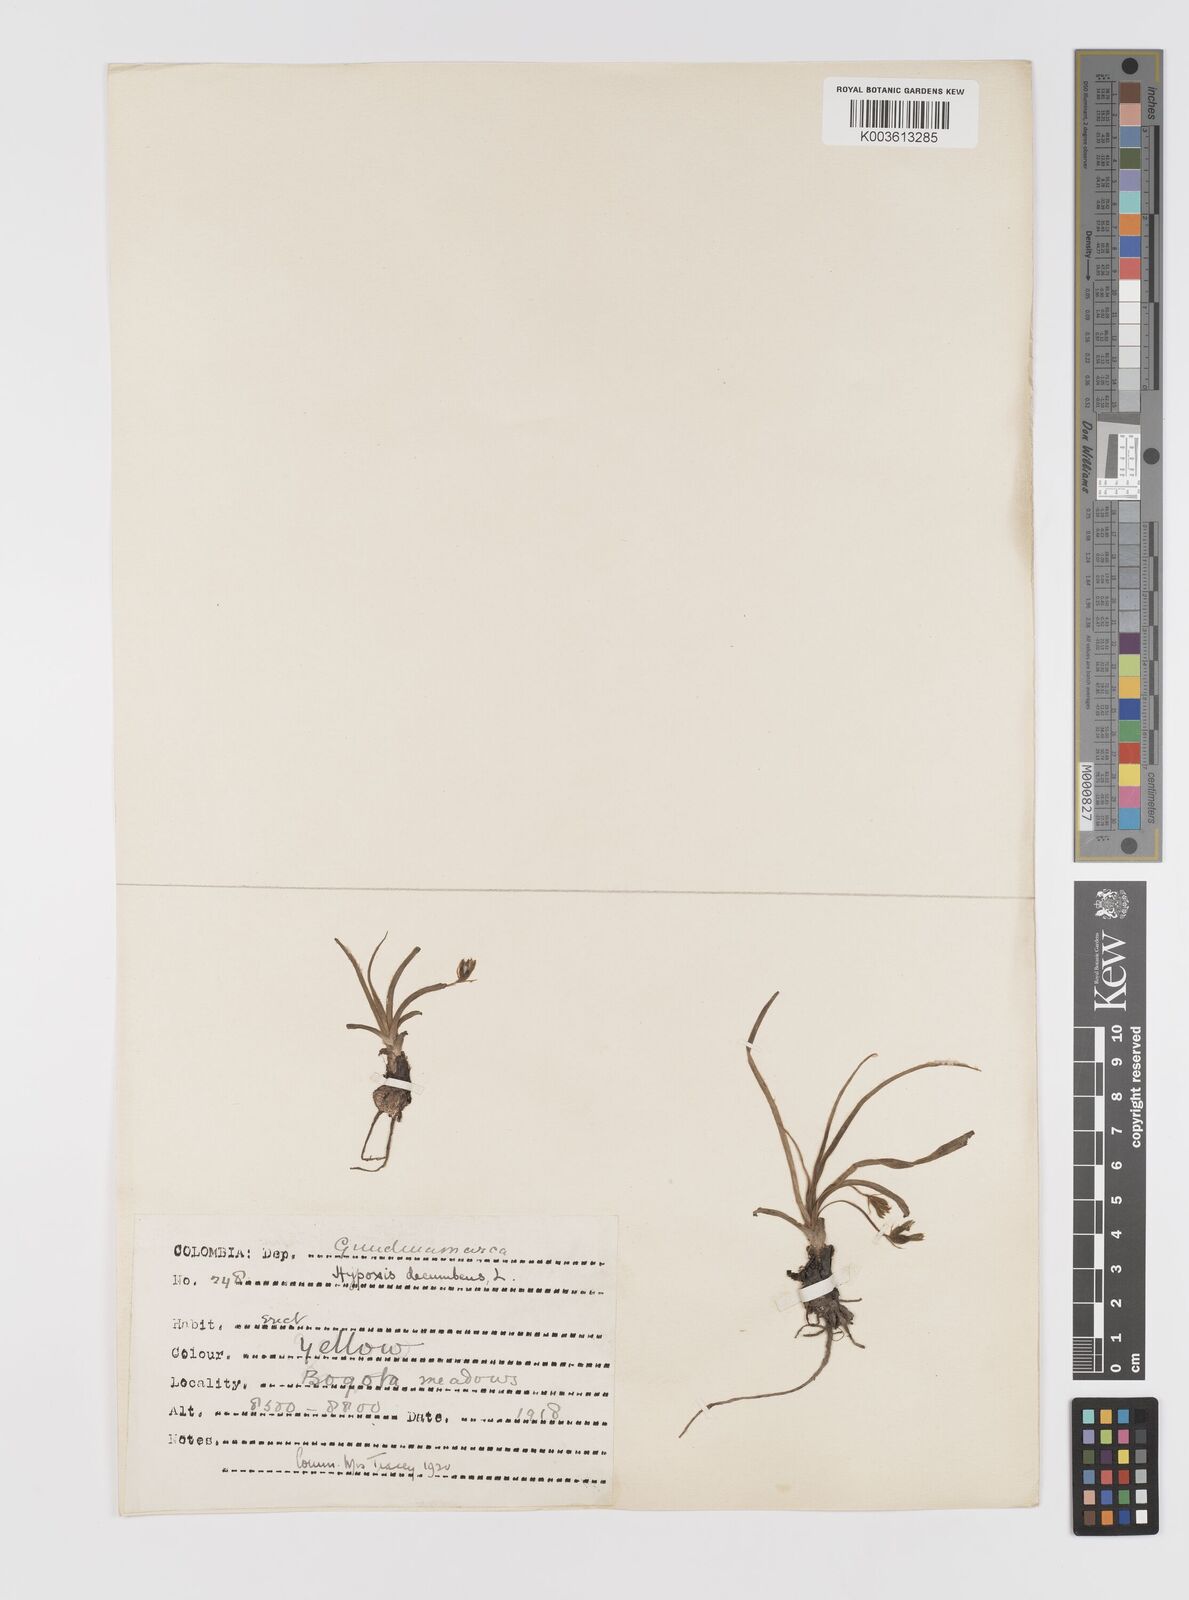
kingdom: Plantae
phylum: Tracheophyta
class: Liliopsida
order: Asparagales
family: Hypoxidaceae
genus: Hypoxis
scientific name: Hypoxis decumbens
